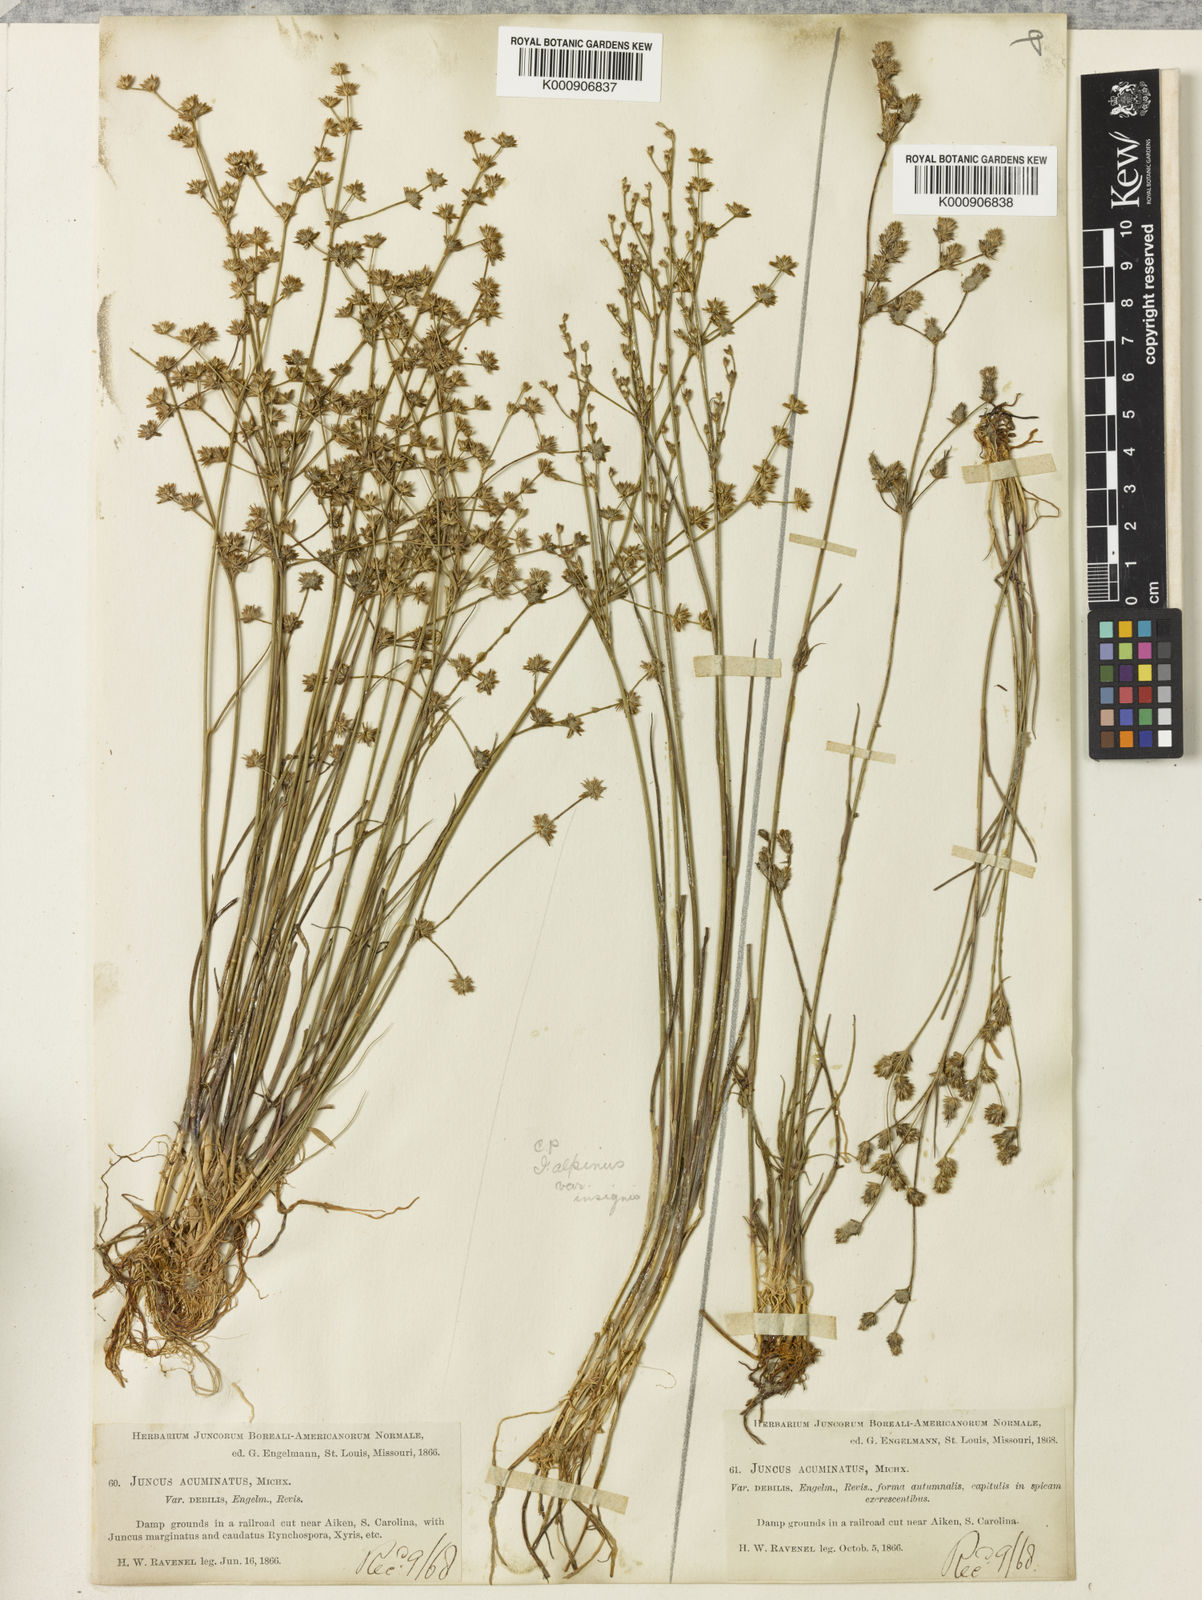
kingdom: Plantae
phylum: Tracheophyta
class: Liliopsida
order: Poales
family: Juncaceae
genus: Juncus
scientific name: Juncus debilis
